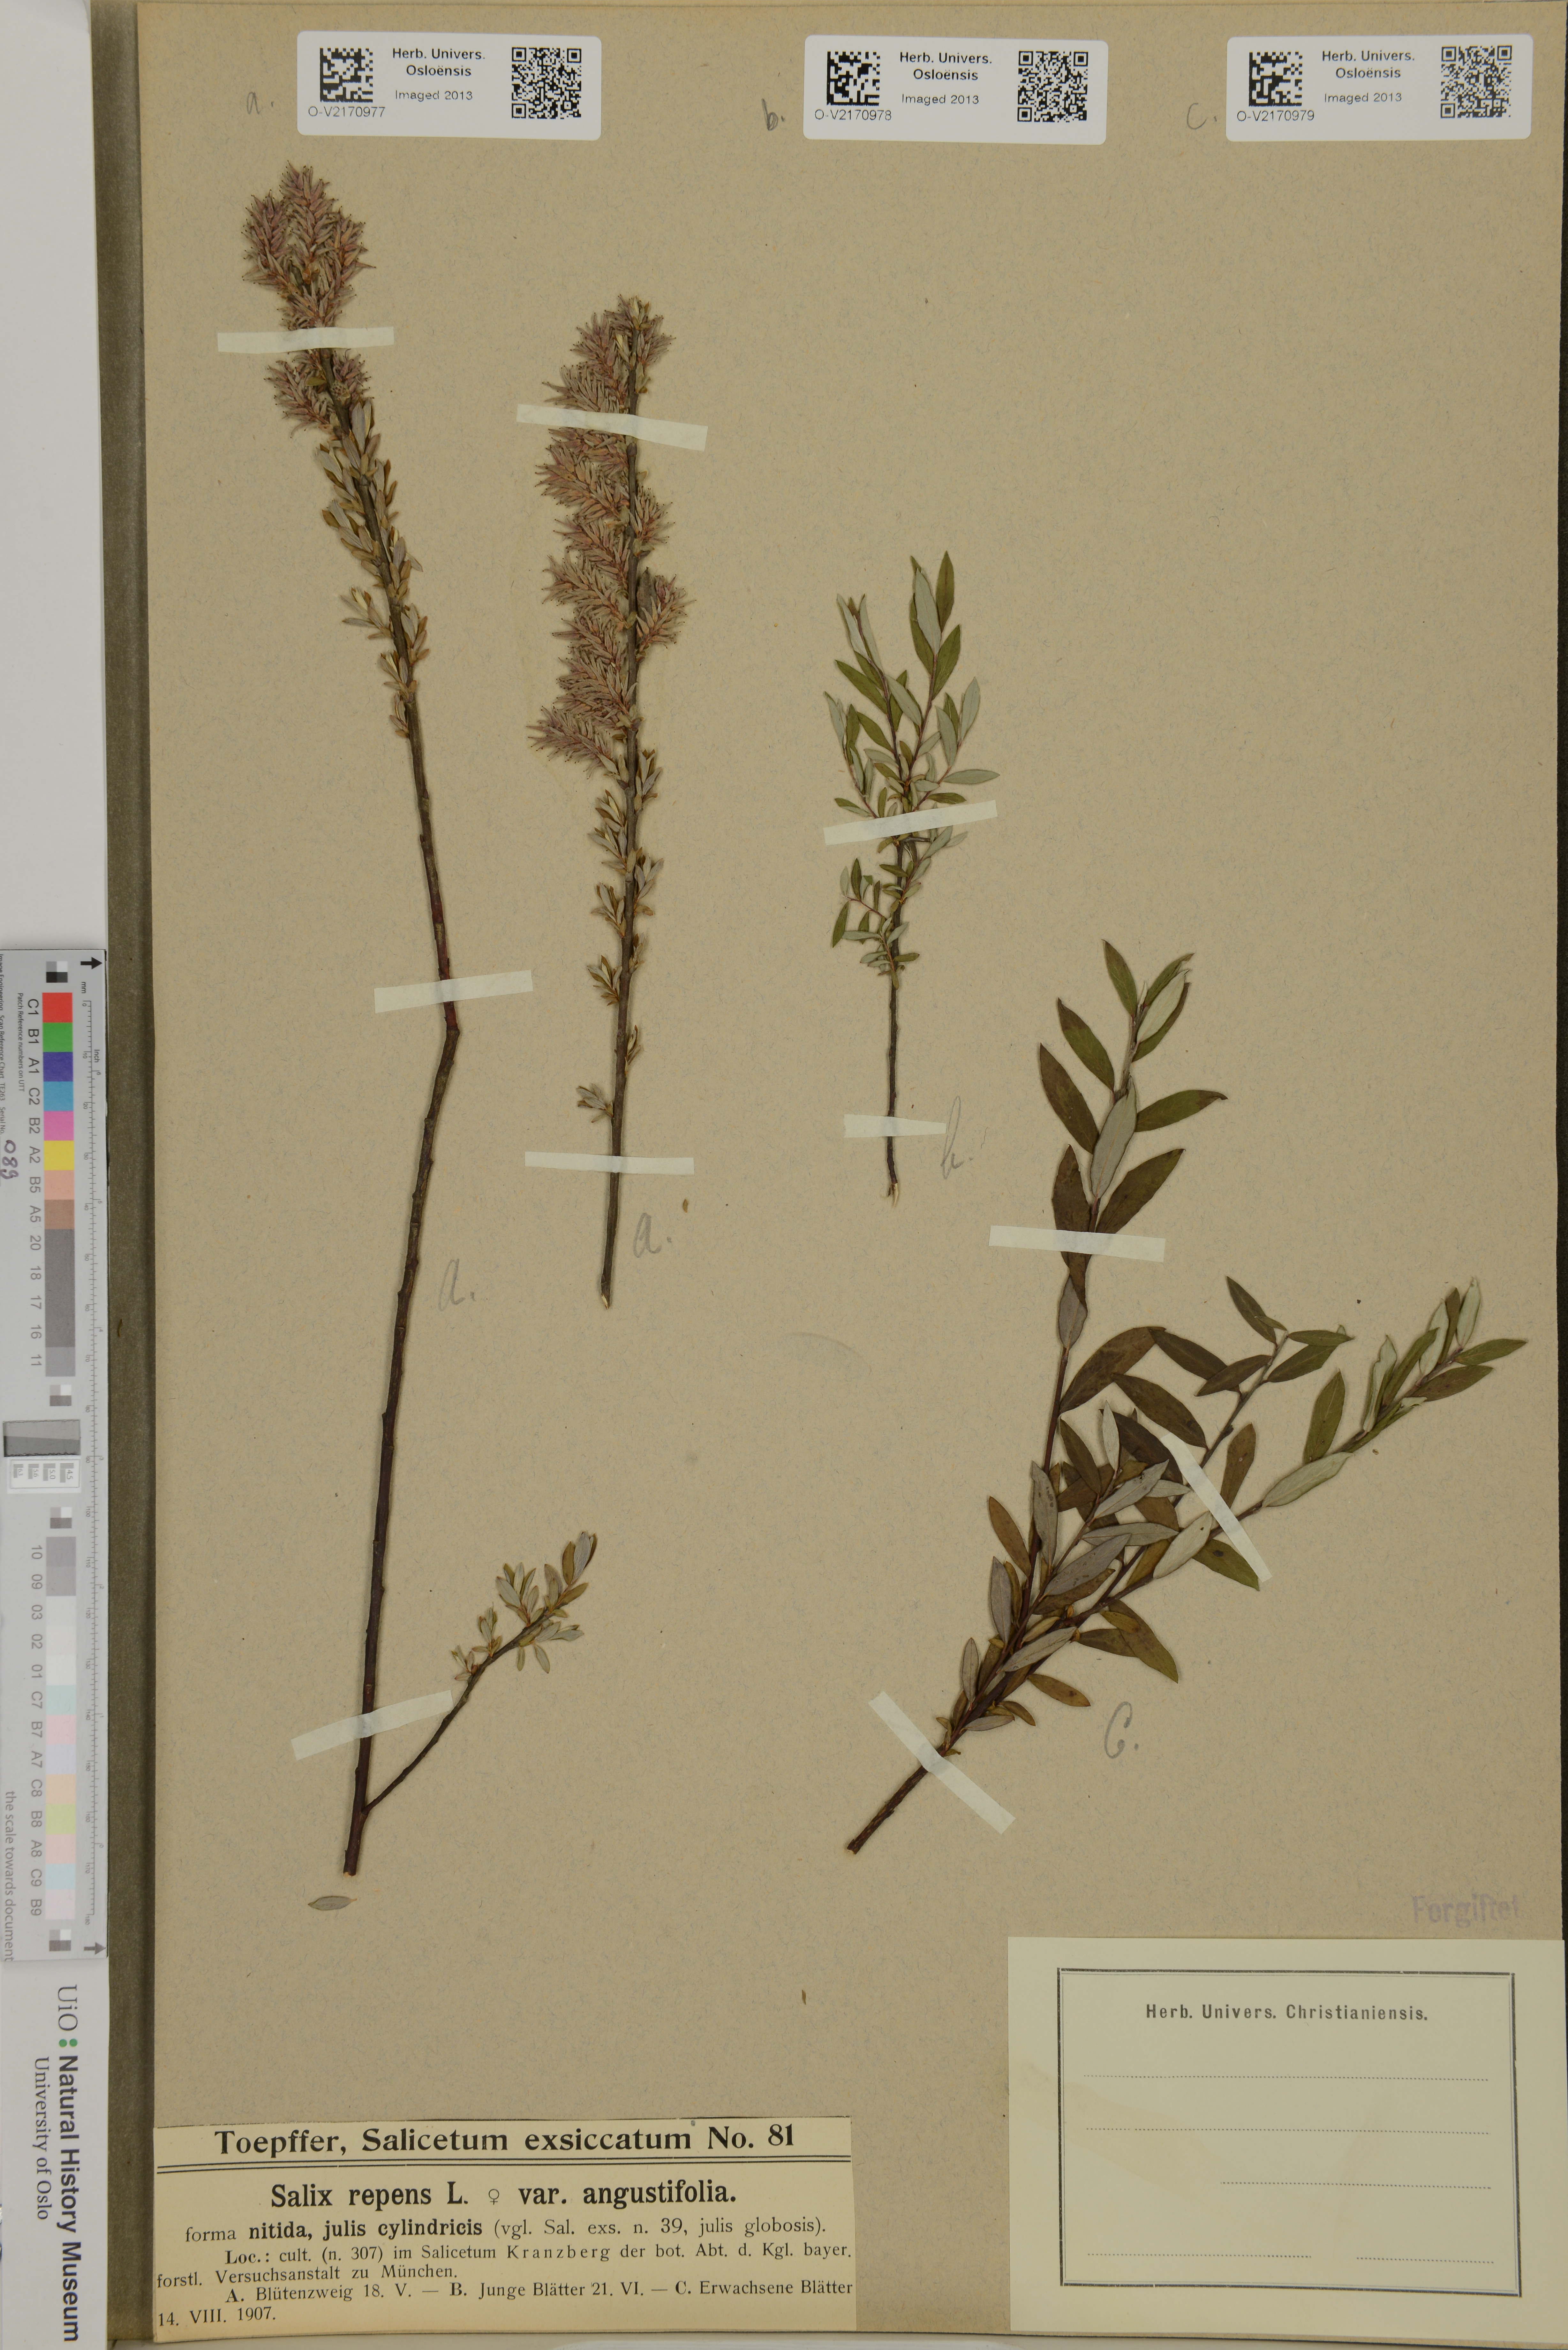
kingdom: Plantae
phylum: Tracheophyta
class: Magnoliopsida
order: Malpighiales
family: Salicaceae
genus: Salix
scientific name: Salix repens
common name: Creeping willow
